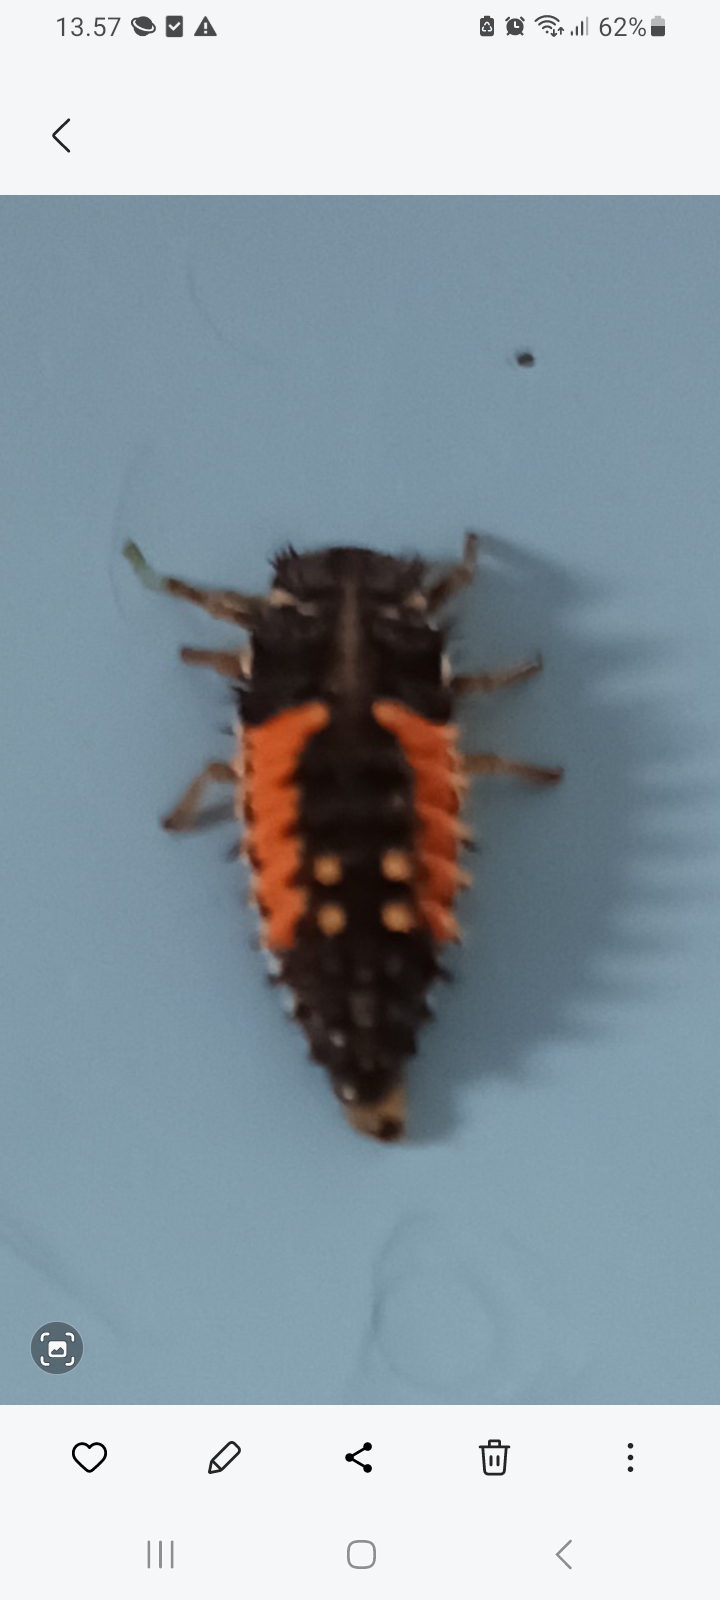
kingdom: Animalia
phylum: Arthropoda
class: Insecta
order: Coleoptera
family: Coccinellidae
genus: Harmonia
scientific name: Harmonia axyridis
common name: Harlekinmariehøne
